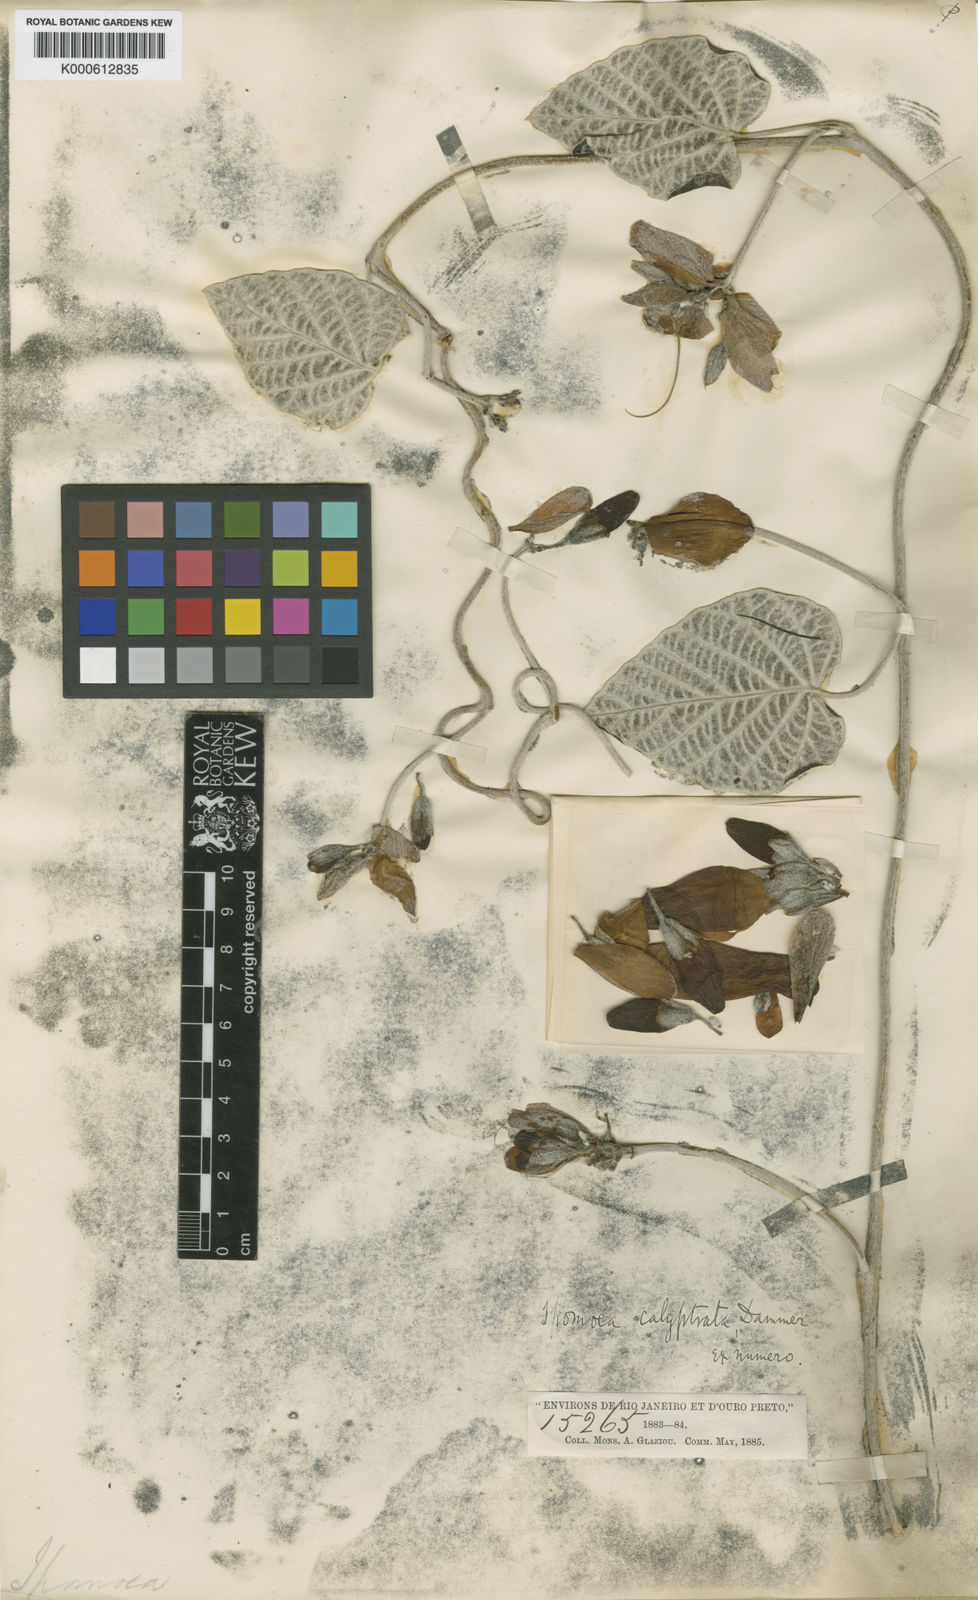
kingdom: Plantae
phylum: Tracheophyta
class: Magnoliopsida
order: Solanales
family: Convolvulaceae
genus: Ipomoea
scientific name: Ipomoea calyptrata
